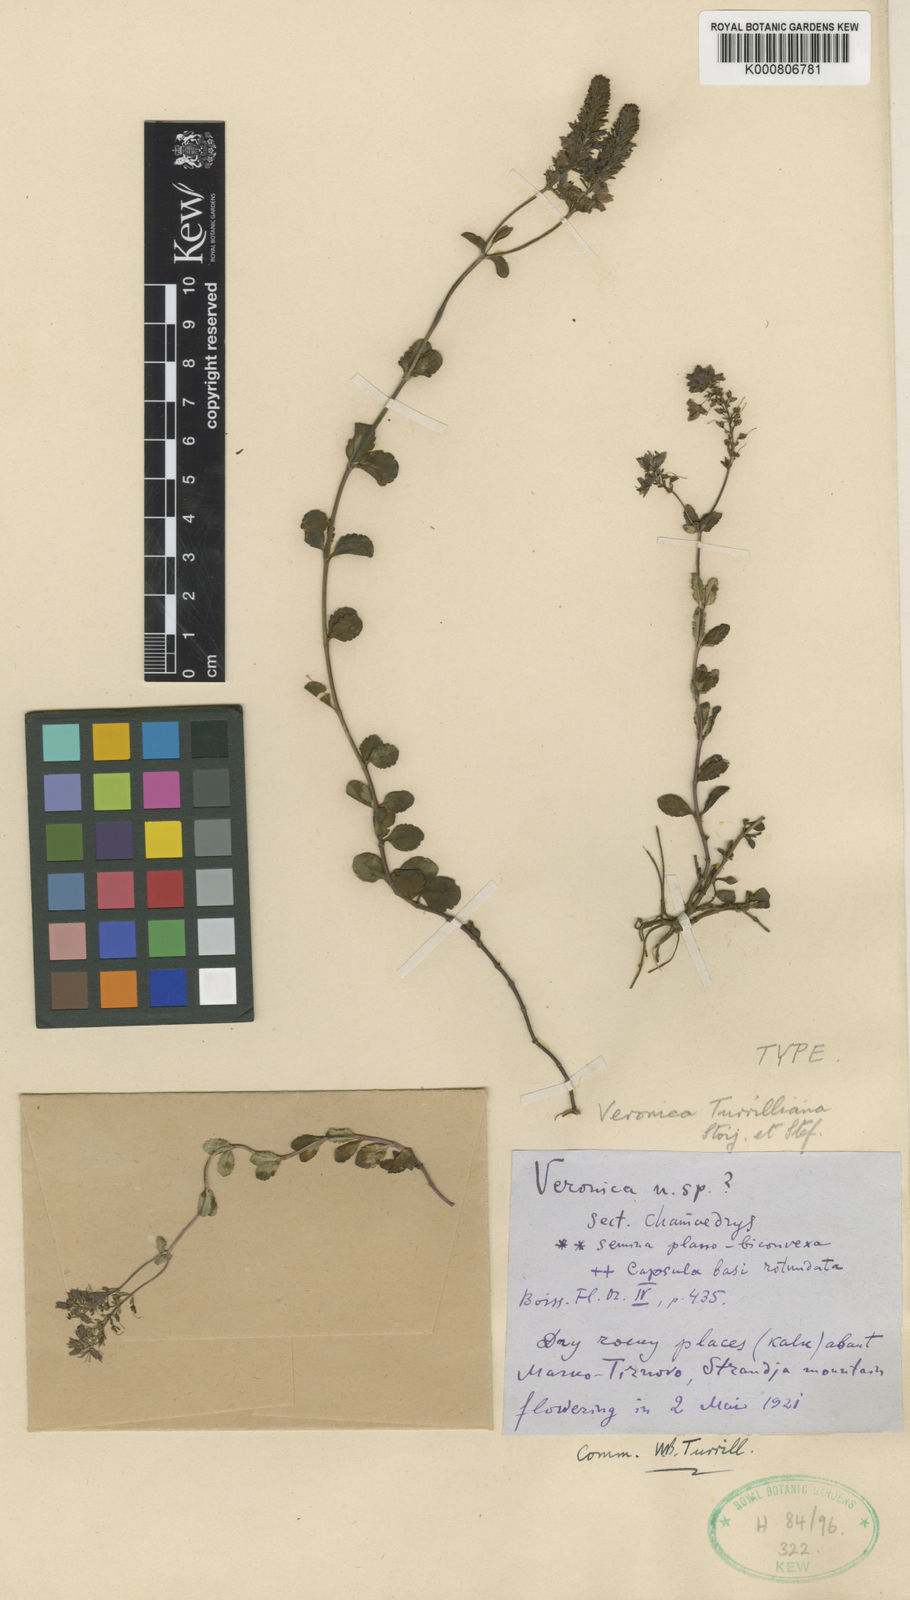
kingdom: Plantae
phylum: Tracheophyta
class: Magnoliopsida
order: Lamiales
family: Plantaginaceae
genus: Veronica
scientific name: Veronica turrilliana
